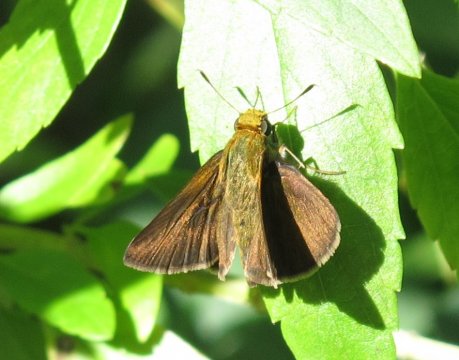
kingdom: Animalia
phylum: Arthropoda
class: Insecta
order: Lepidoptera
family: Hesperiidae
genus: Euphyes
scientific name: Euphyes vestris
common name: Dun Skipper
